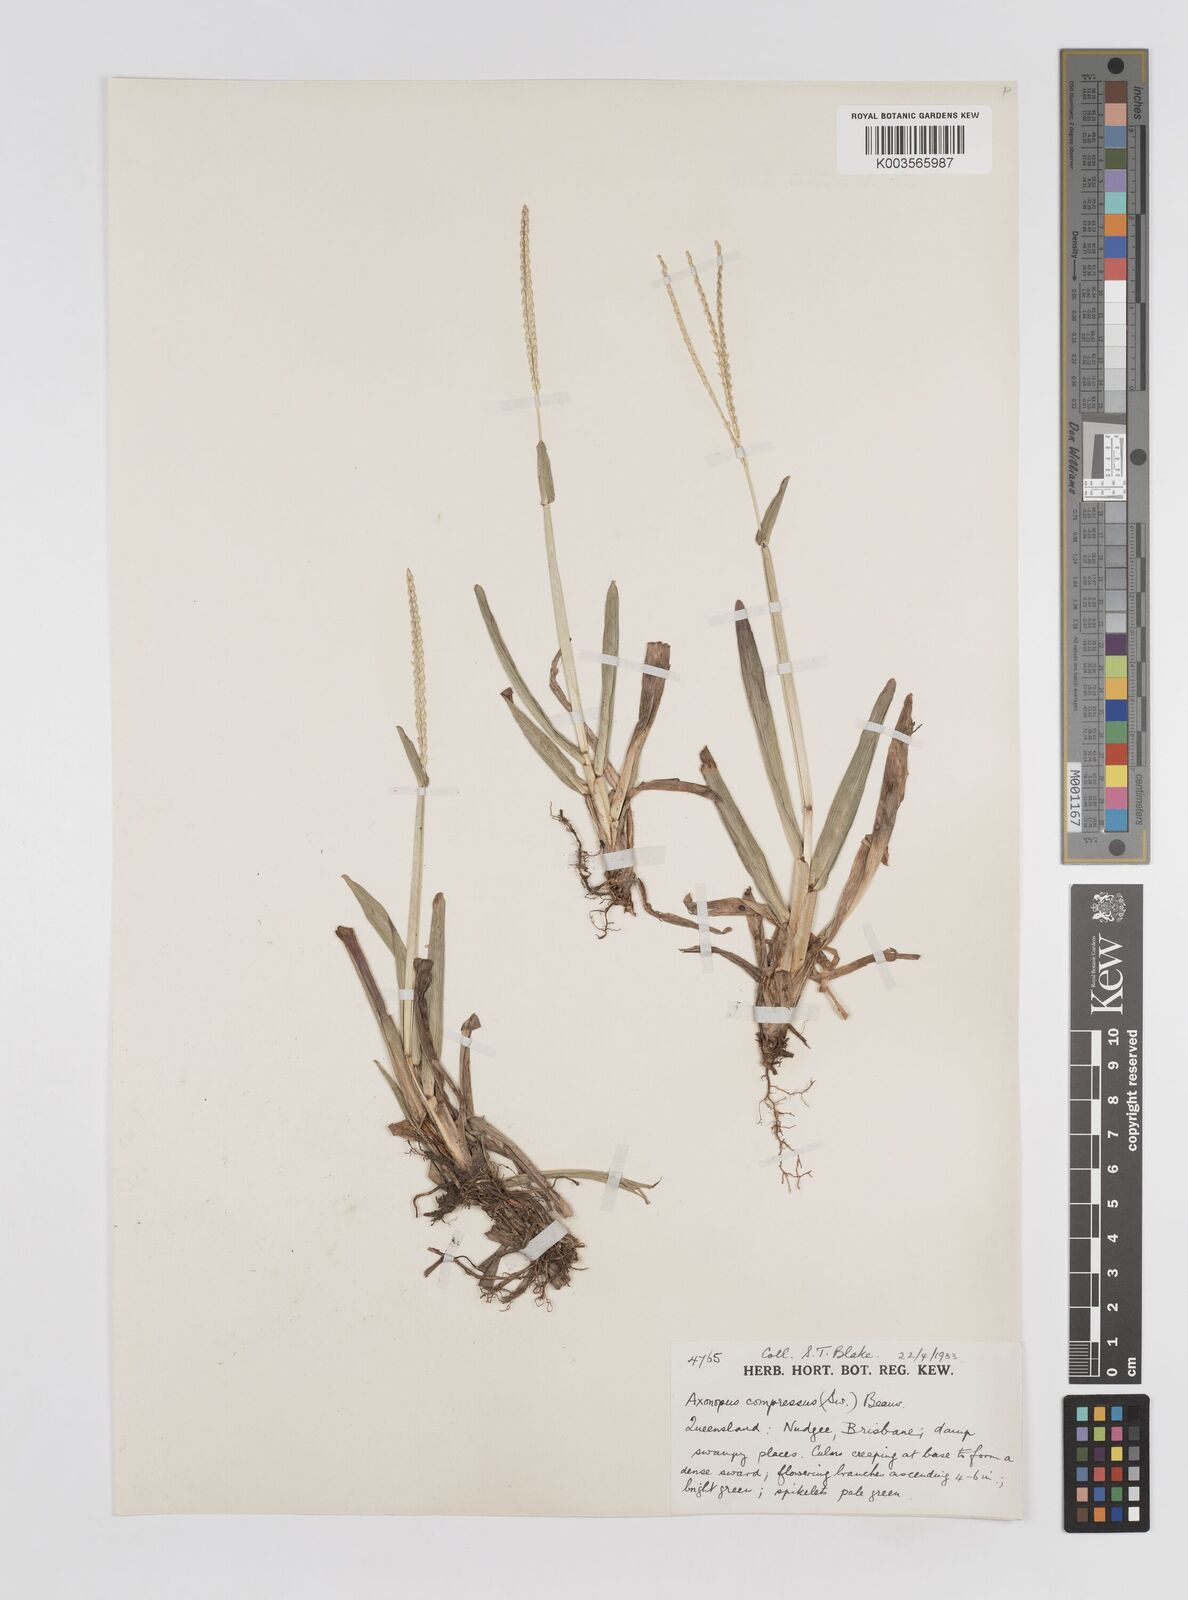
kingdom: Plantae
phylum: Tracheophyta
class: Liliopsida
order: Poales
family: Poaceae
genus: Axonopus
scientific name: Axonopus compressus
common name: American carpet grass
